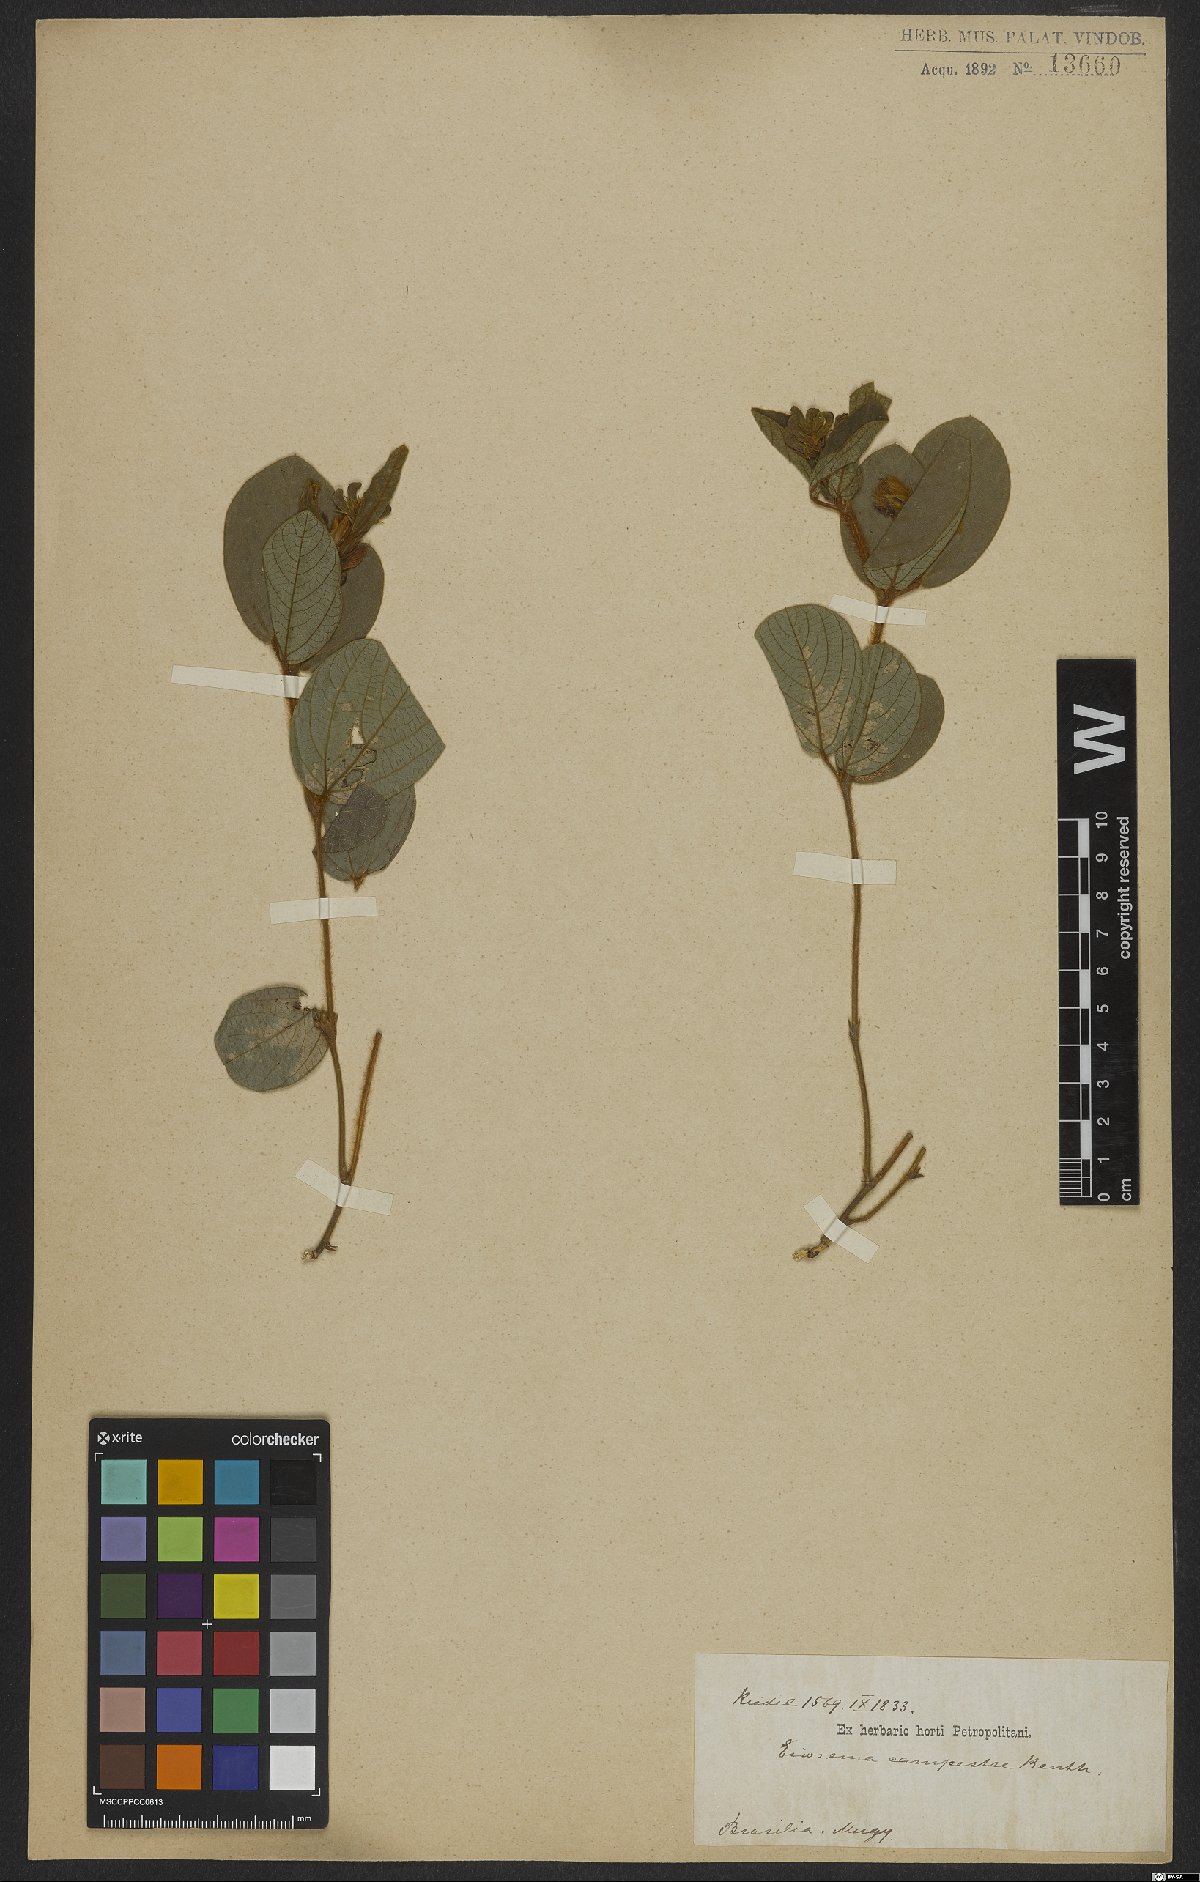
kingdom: Plantae
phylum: Tracheophyta
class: Magnoliopsida
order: Fabales
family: Fabaceae
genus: Eriosema
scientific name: Eriosema campestre
